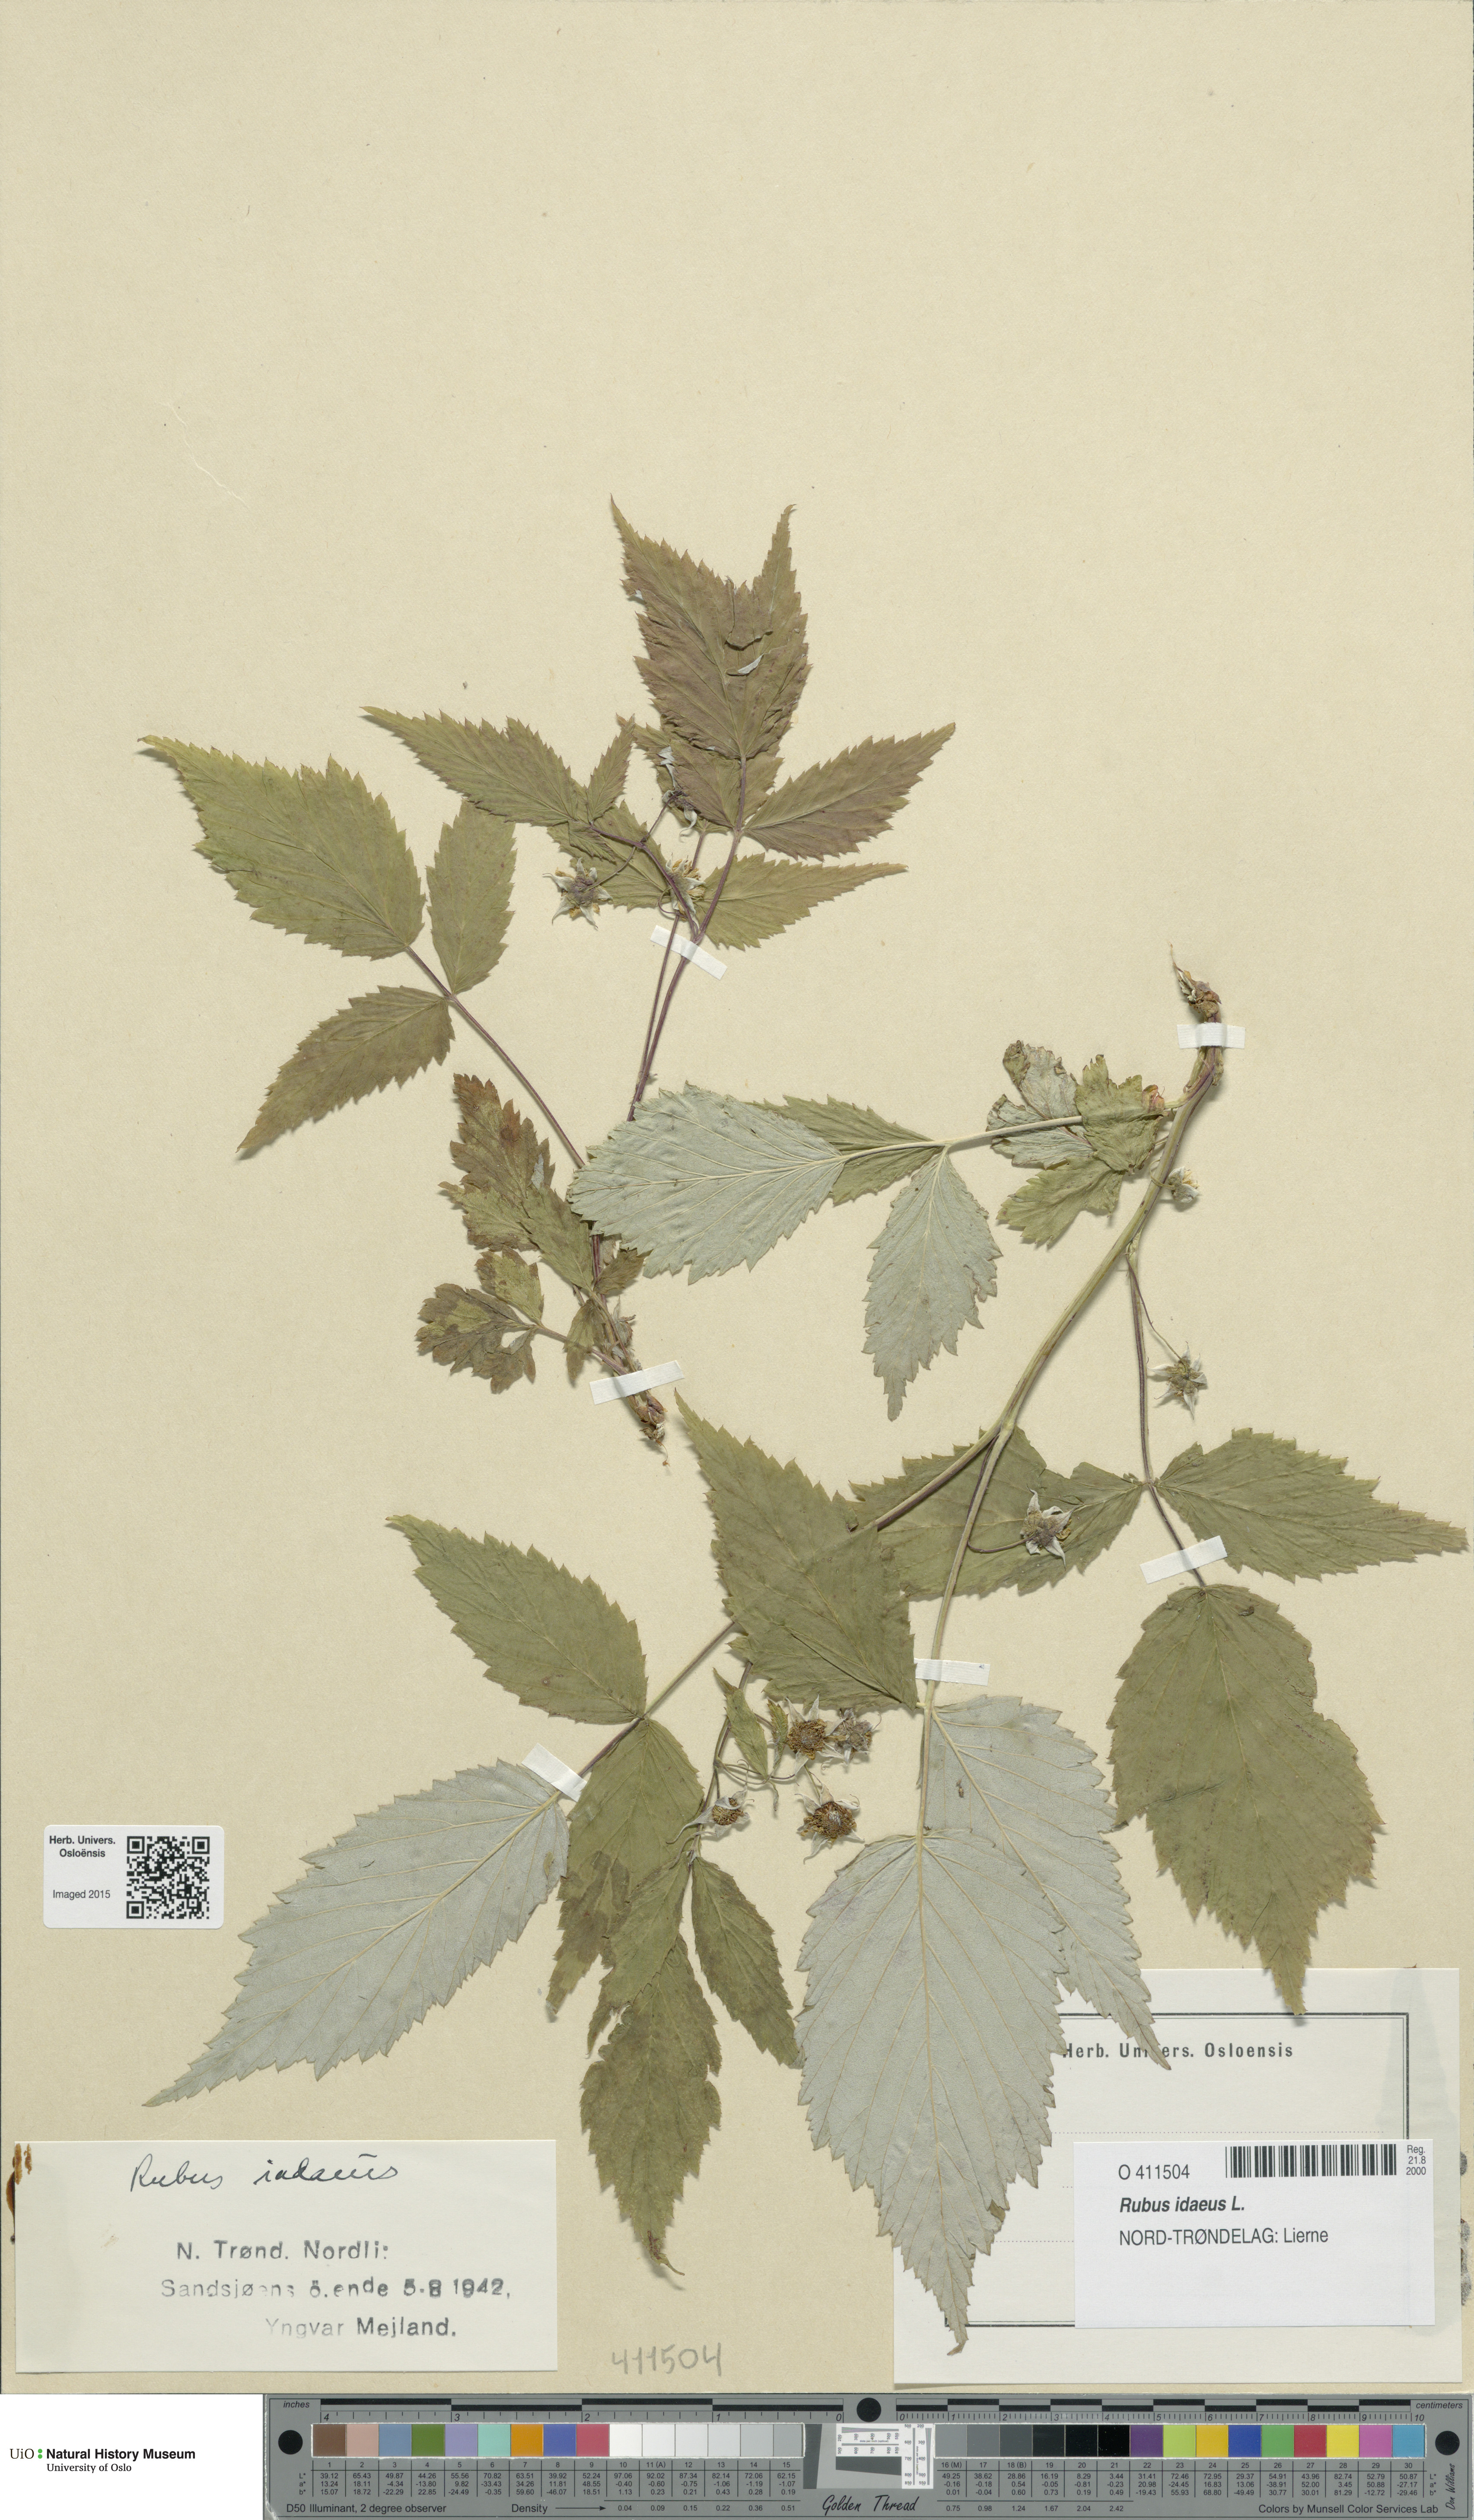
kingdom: Plantae
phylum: Tracheophyta
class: Magnoliopsida
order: Rosales
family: Rosaceae
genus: Rubus
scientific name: Rubus idaeus
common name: Raspberry
